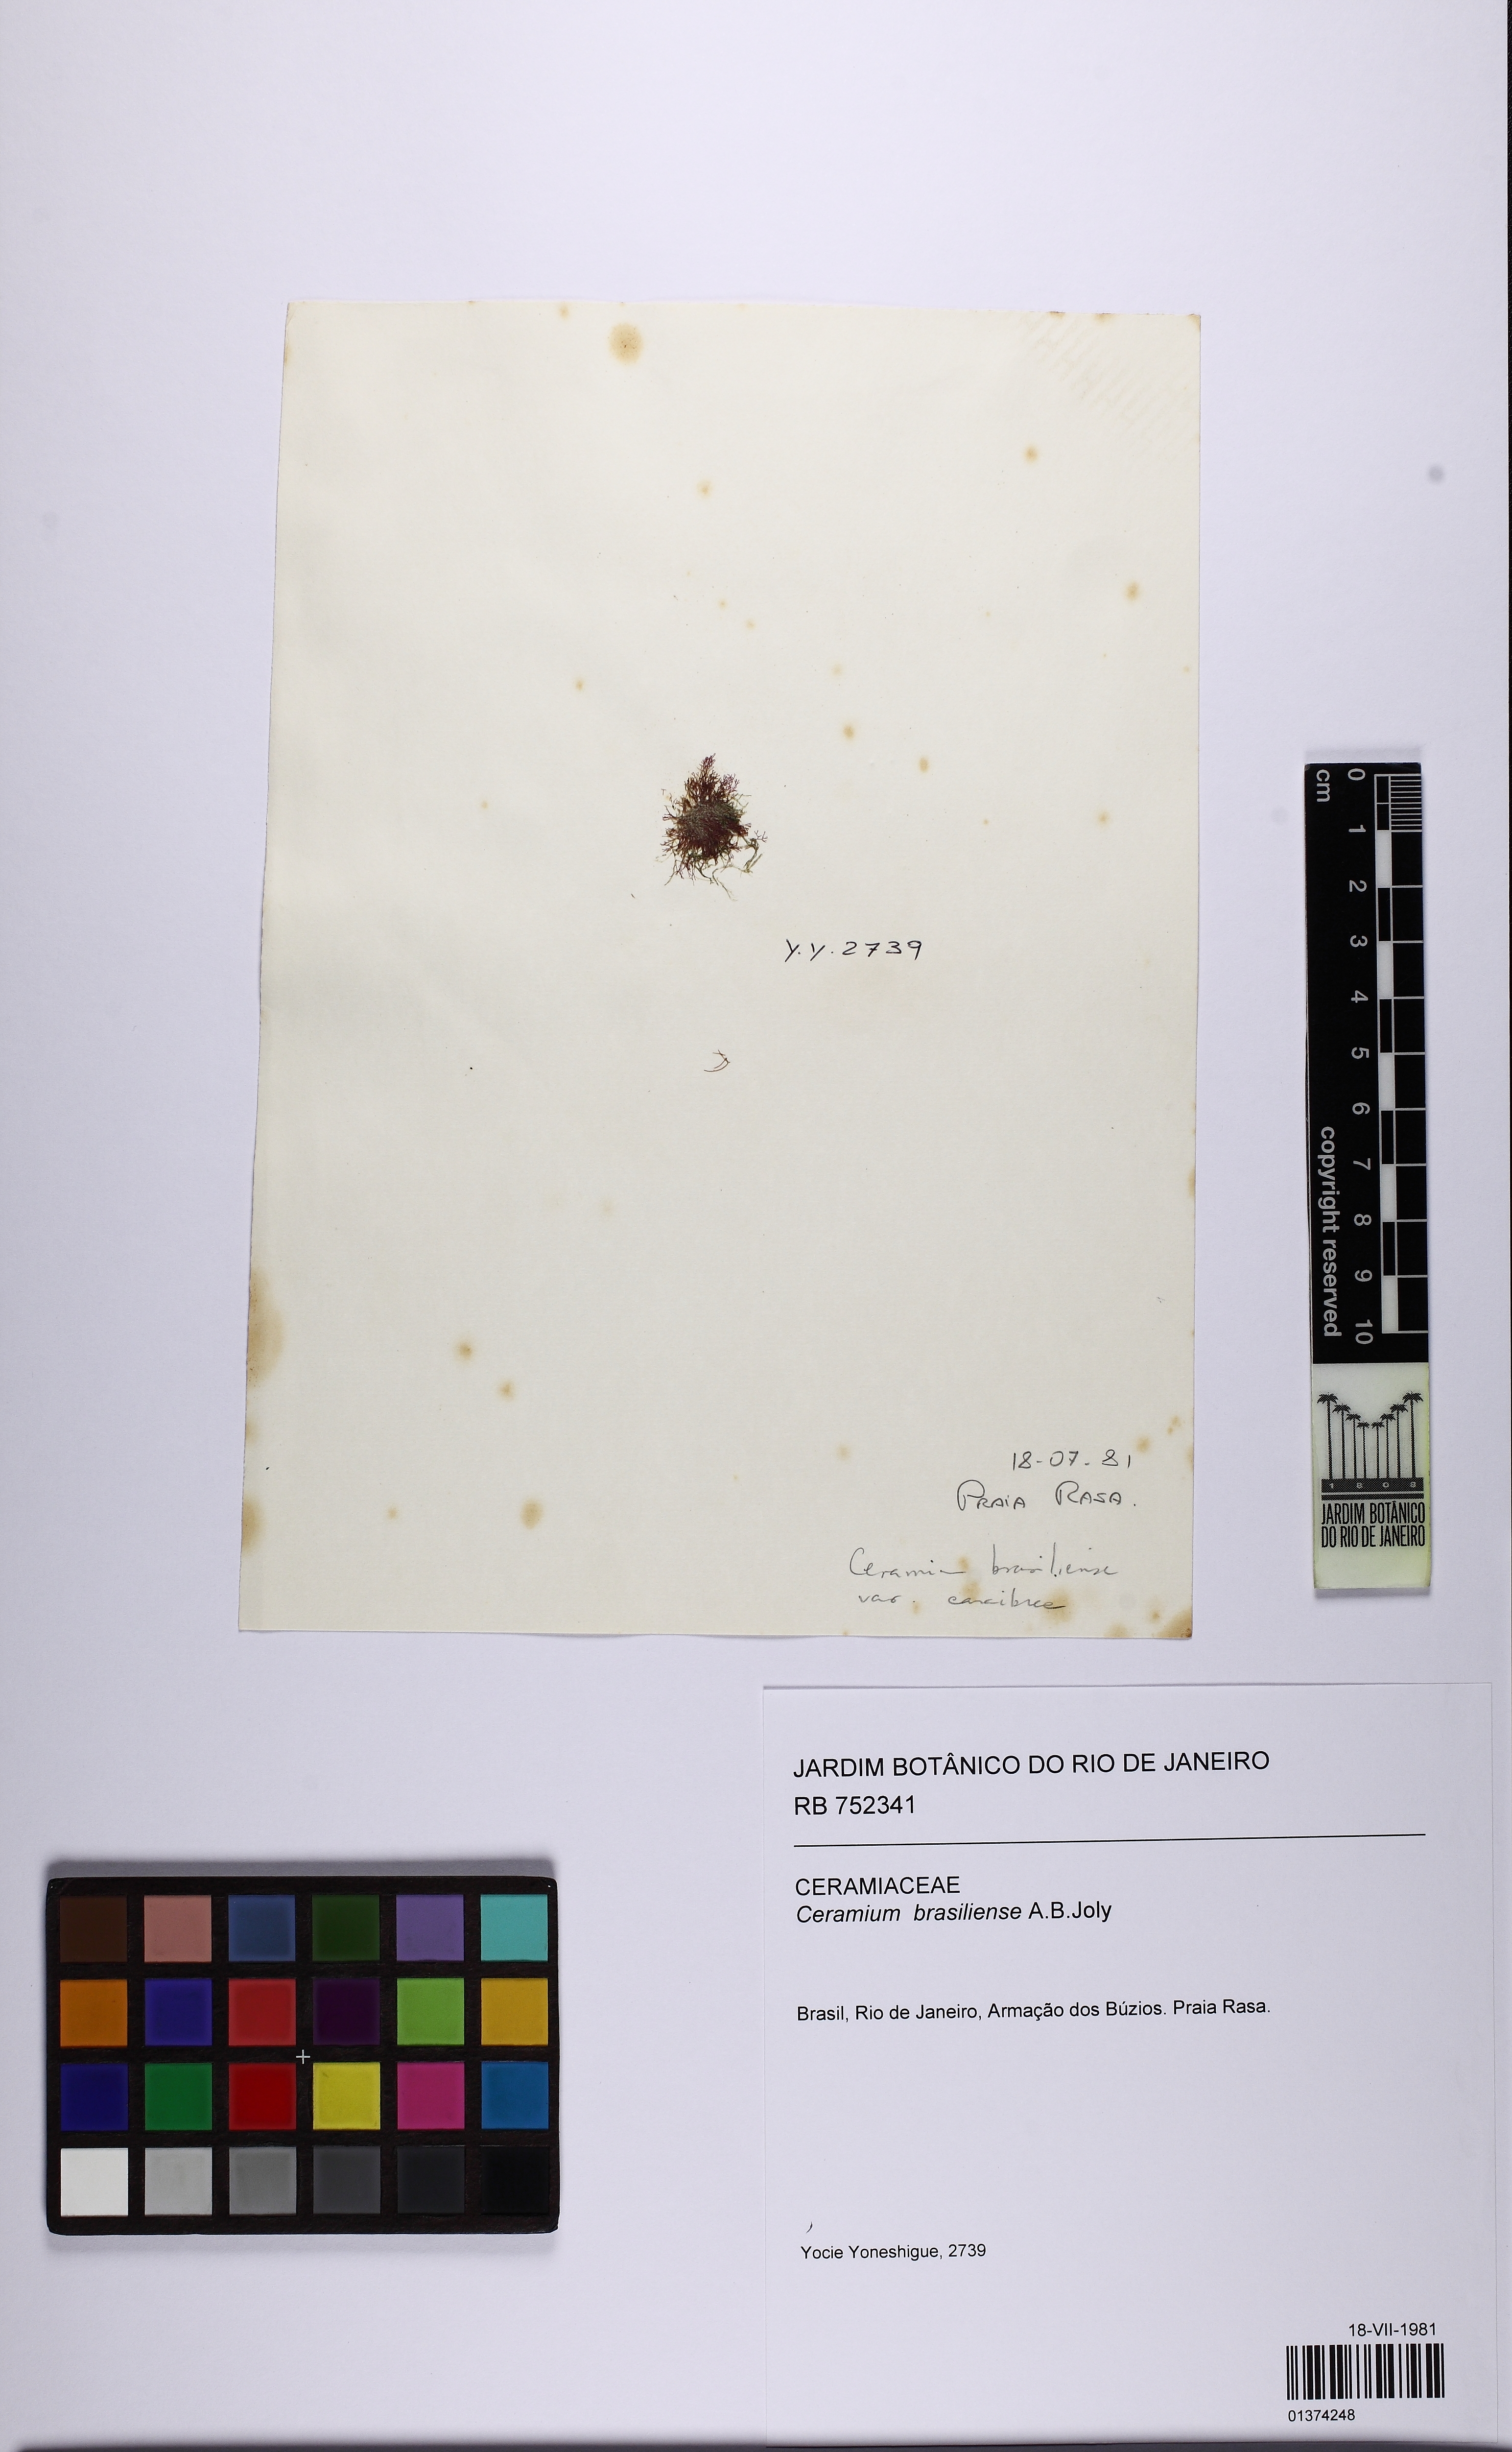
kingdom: Plantae
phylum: Rhodophyta
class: Florideophyceae
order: Ceramiales
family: Ceramiaceae
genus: Ceramium
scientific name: Ceramium brasiliense
